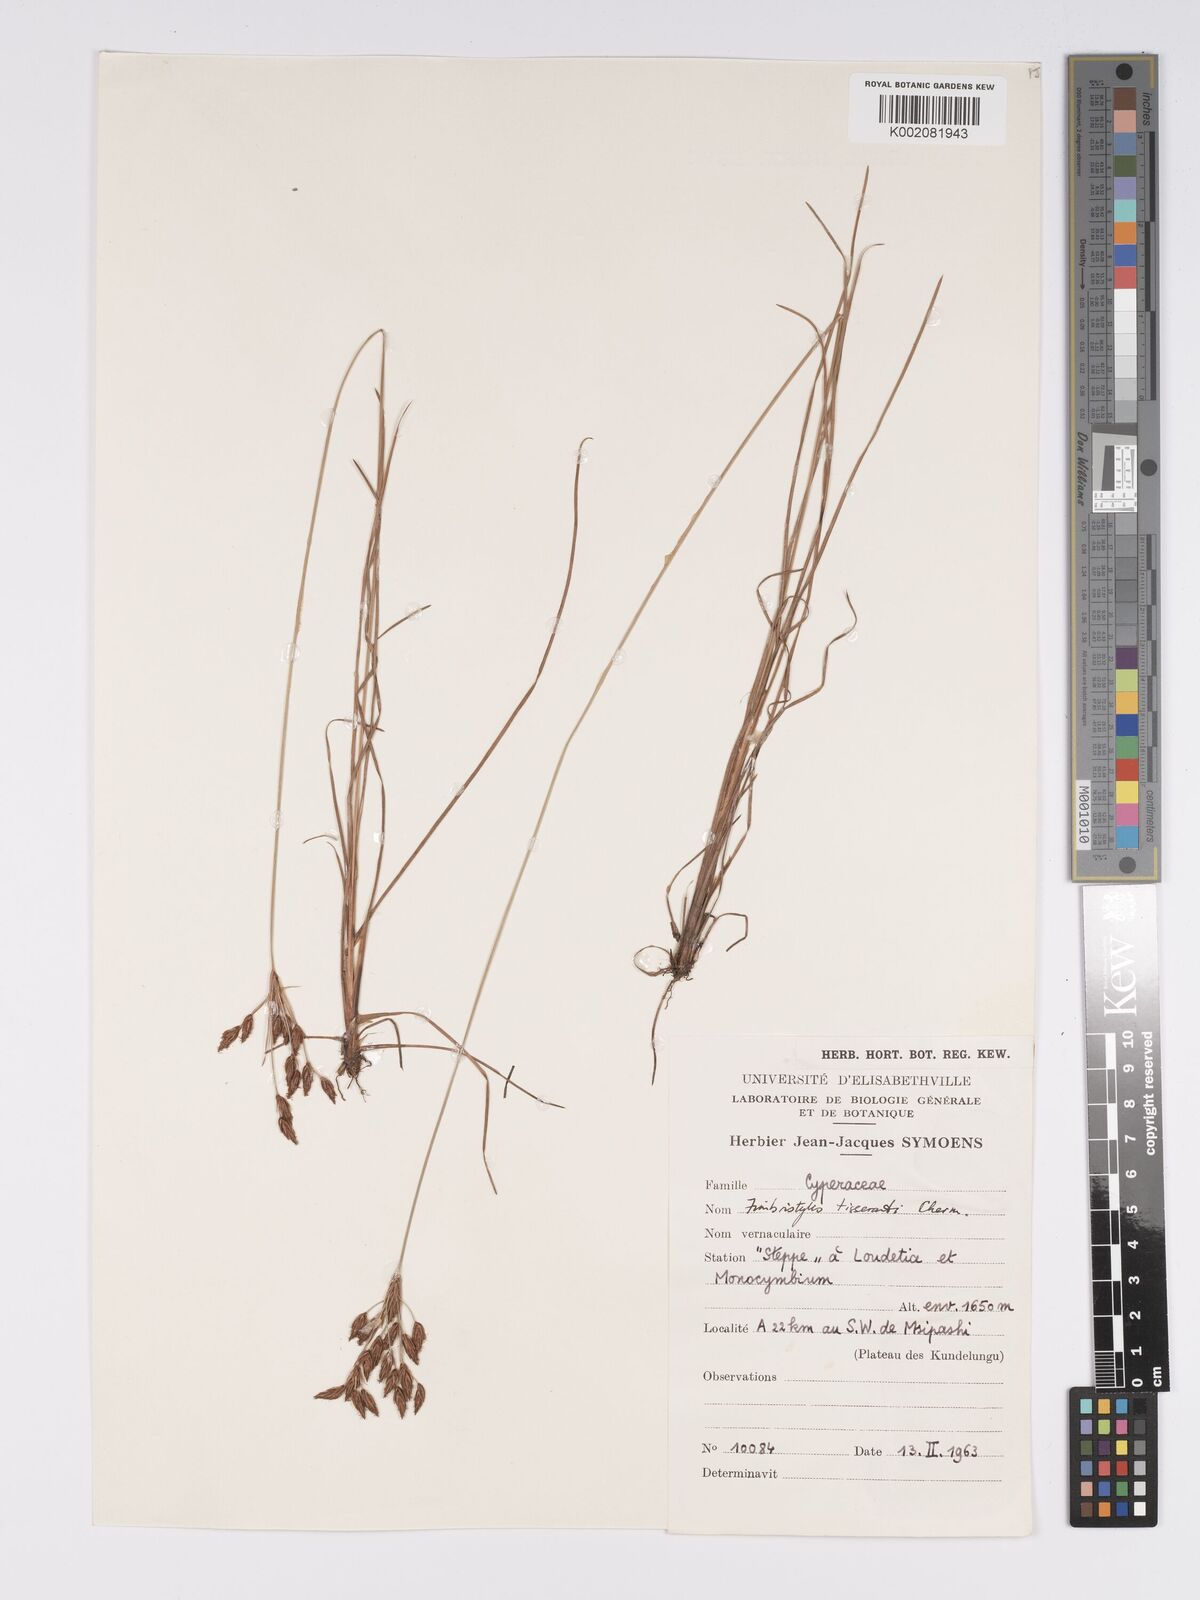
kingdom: Plantae
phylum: Tracheophyta
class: Liliopsida
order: Poales
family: Cyperaceae
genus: Bulbostylis
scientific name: Bulbostylis viridecarinata
